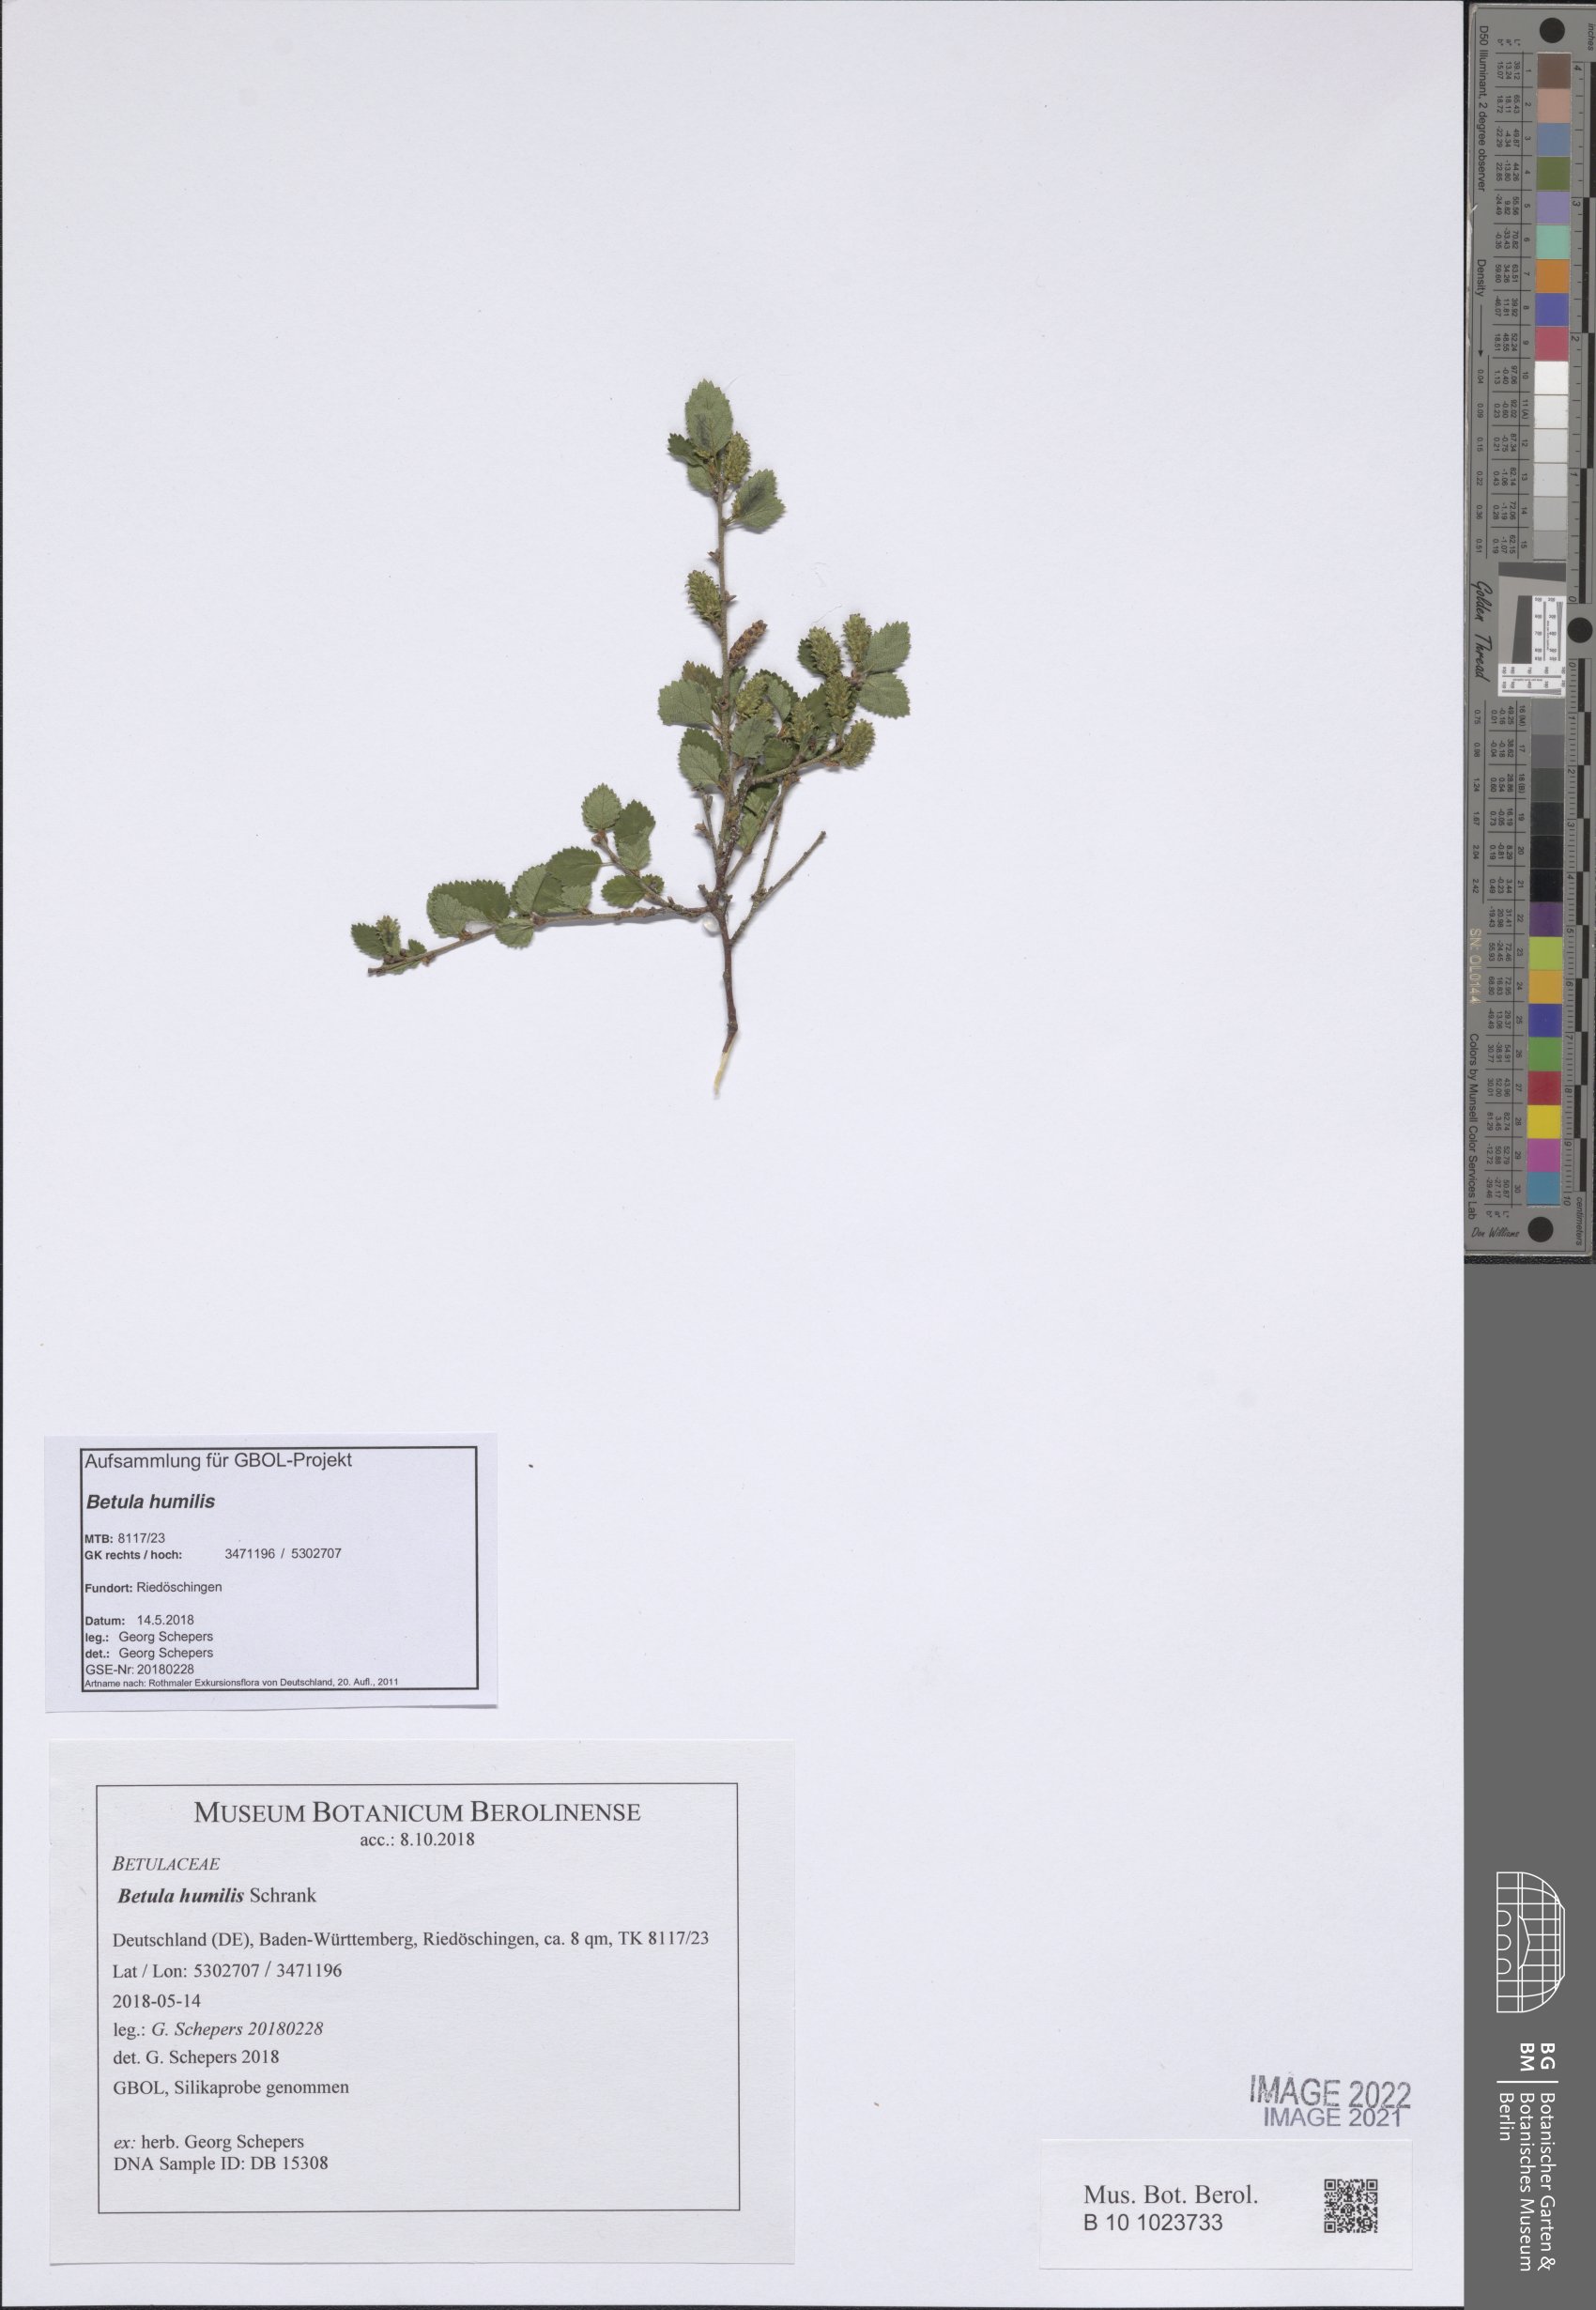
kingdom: Plantae
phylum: Tracheophyta
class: Magnoliopsida
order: Fagales
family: Betulaceae
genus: Betula
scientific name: Betula humilis
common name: Shrubby birch
